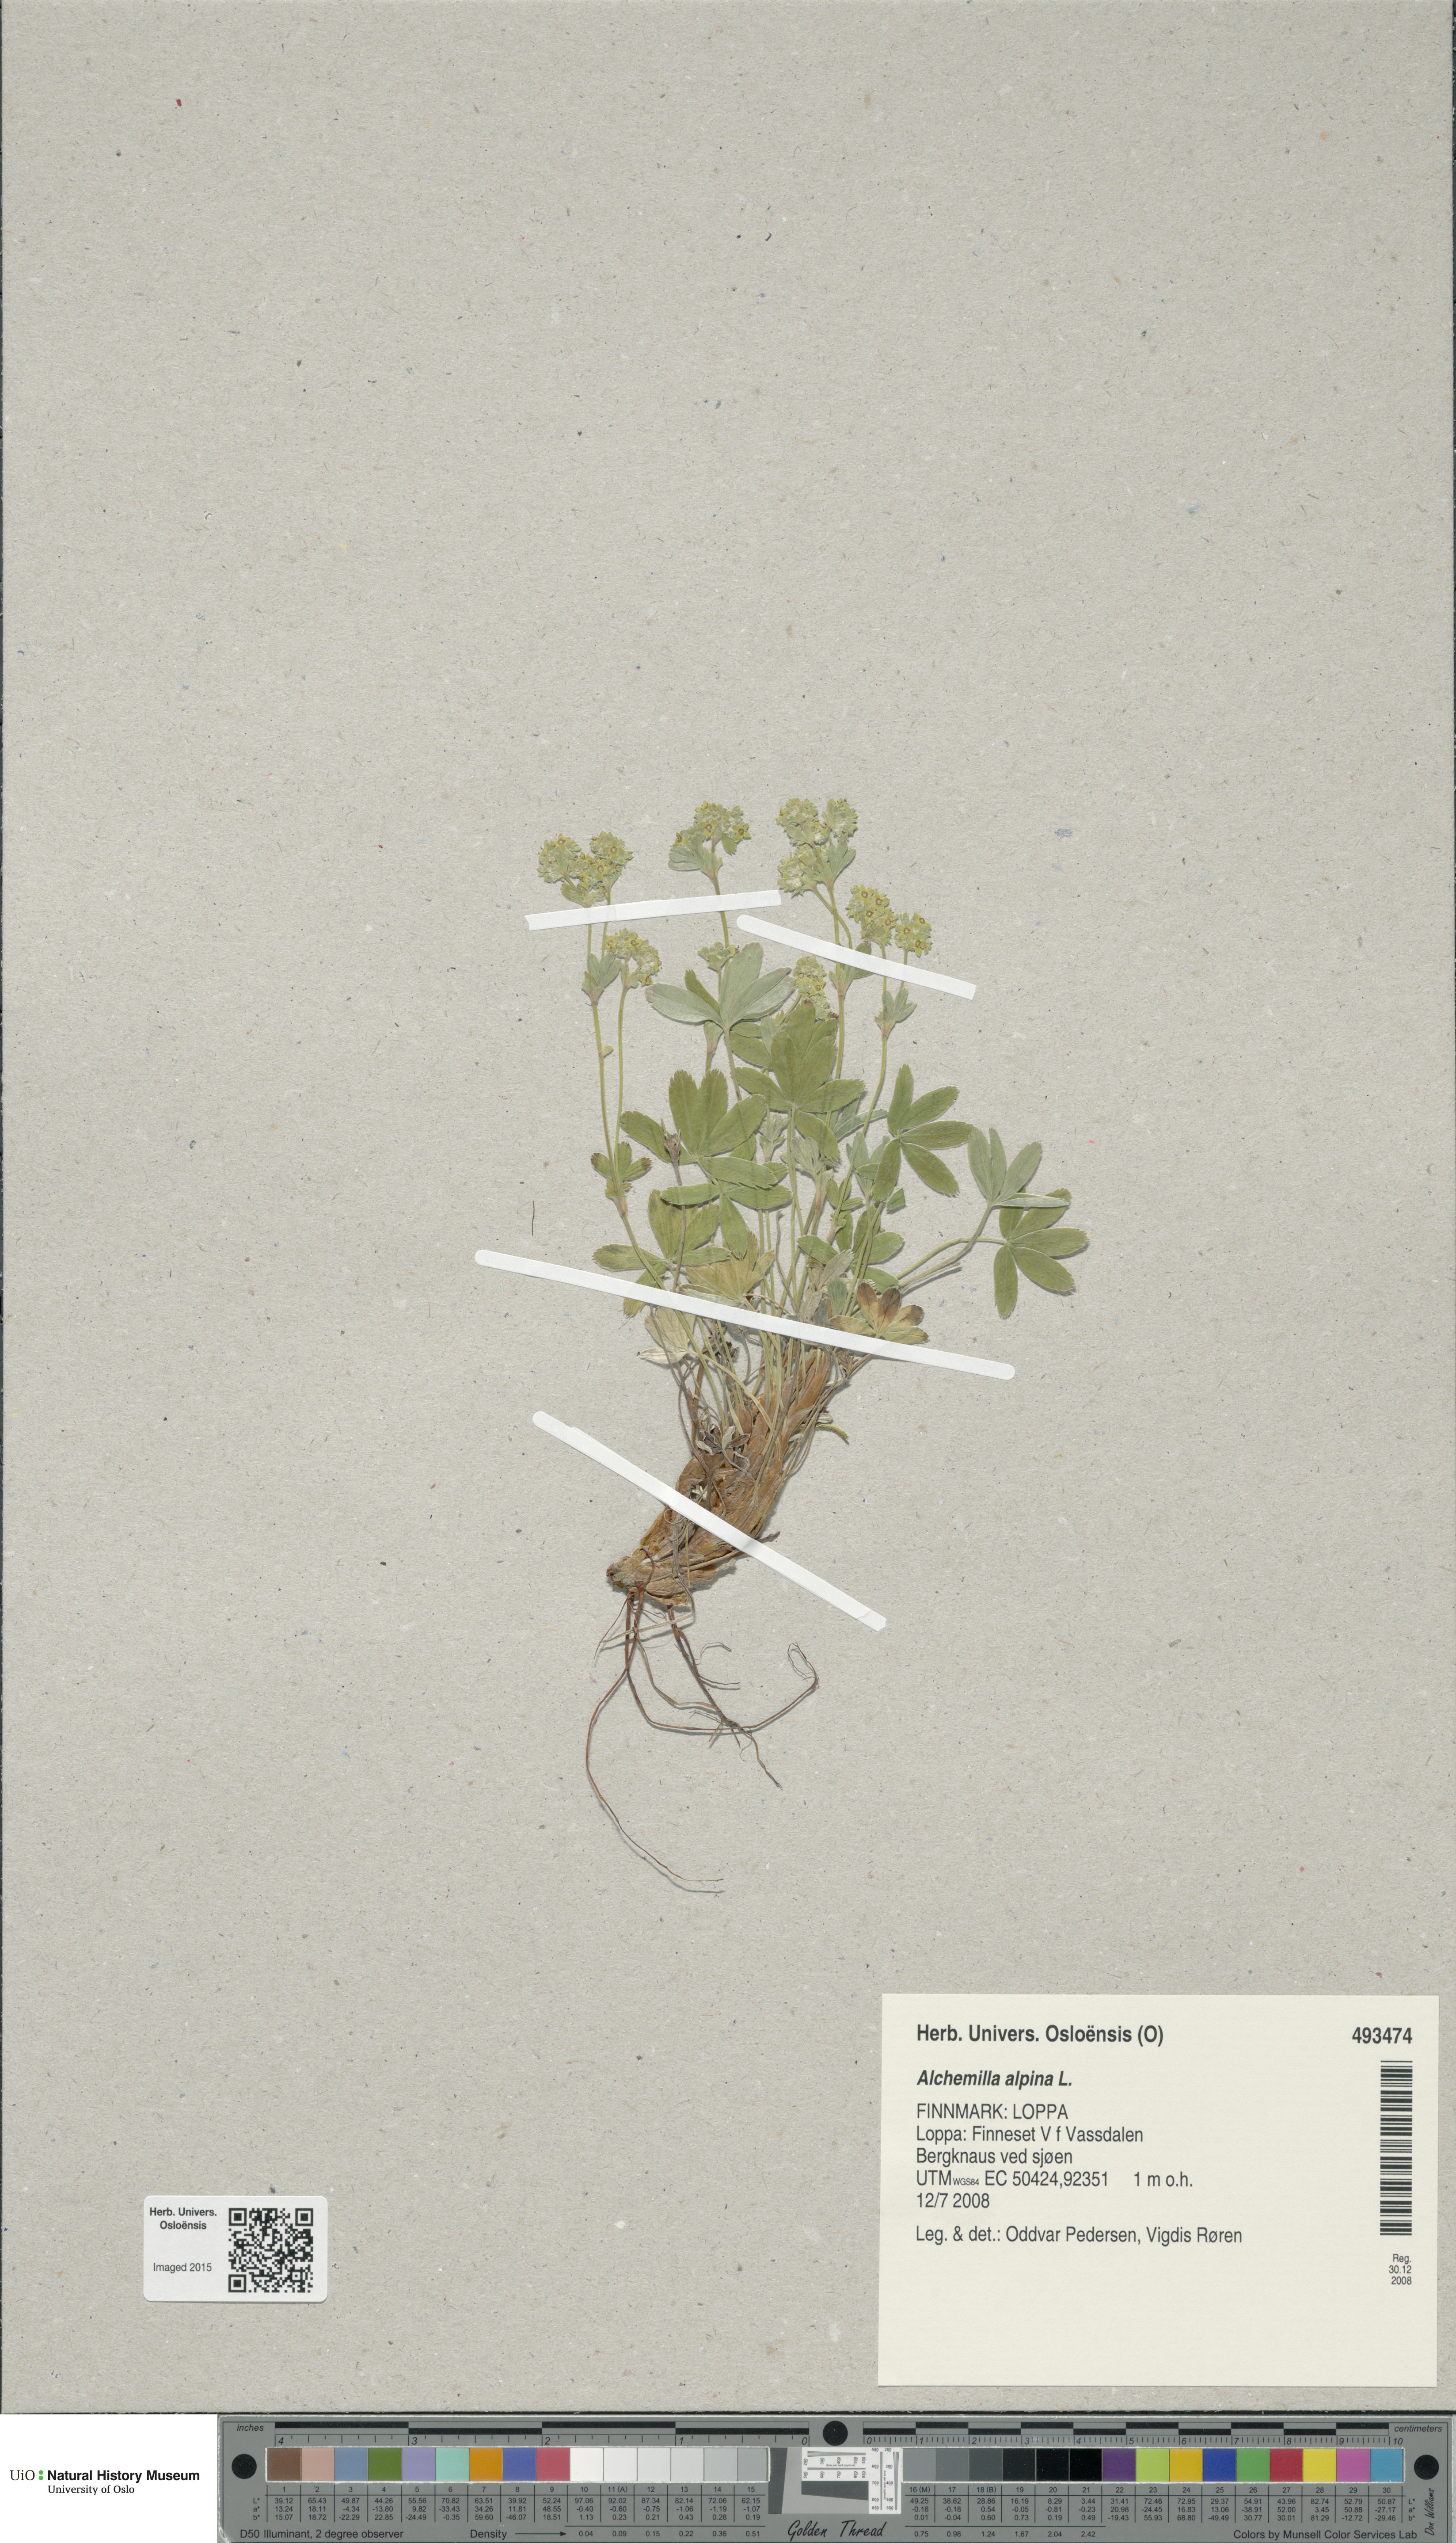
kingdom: Plantae
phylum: Tracheophyta
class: Magnoliopsida
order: Rosales
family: Rosaceae
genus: Alchemilla
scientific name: Alchemilla alpina
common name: Alpine lady's-mantle
